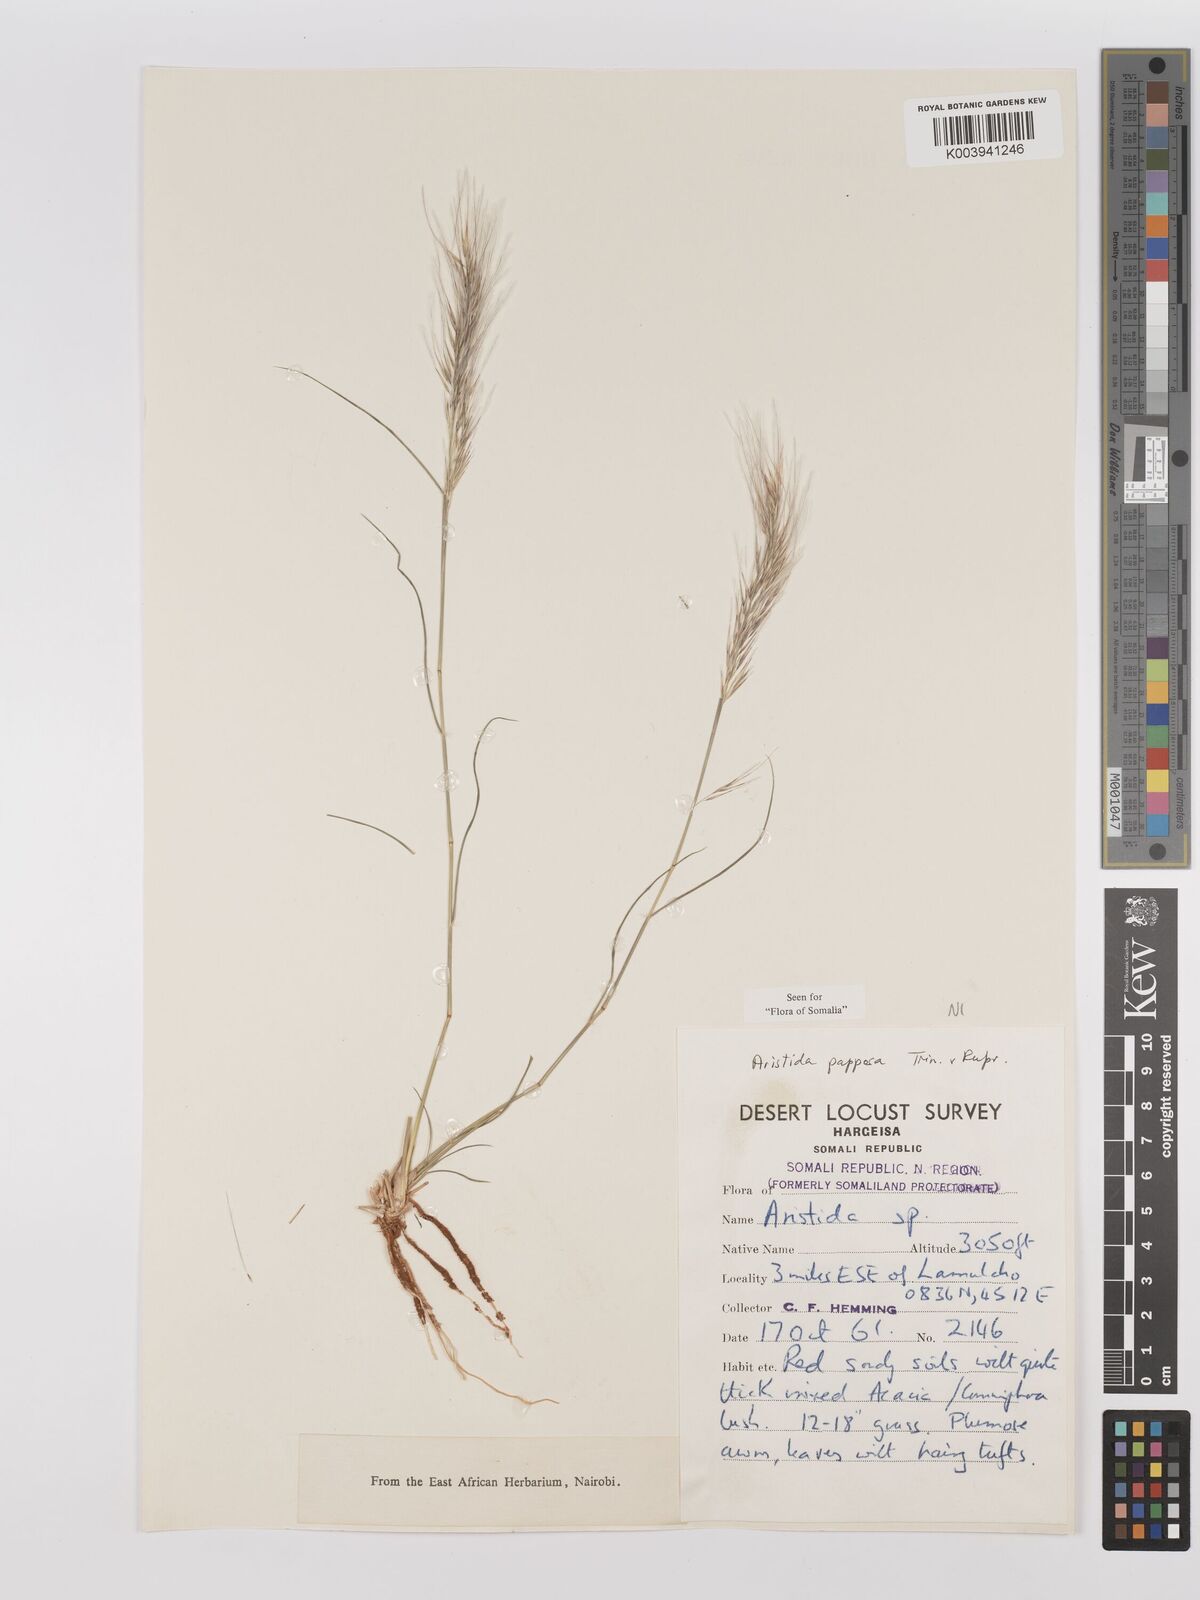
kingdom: Plantae
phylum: Tracheophyta
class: Liliopsida
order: Poales
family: Poaceae
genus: Stipagrostis
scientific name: Stipagrostis uniplumis
